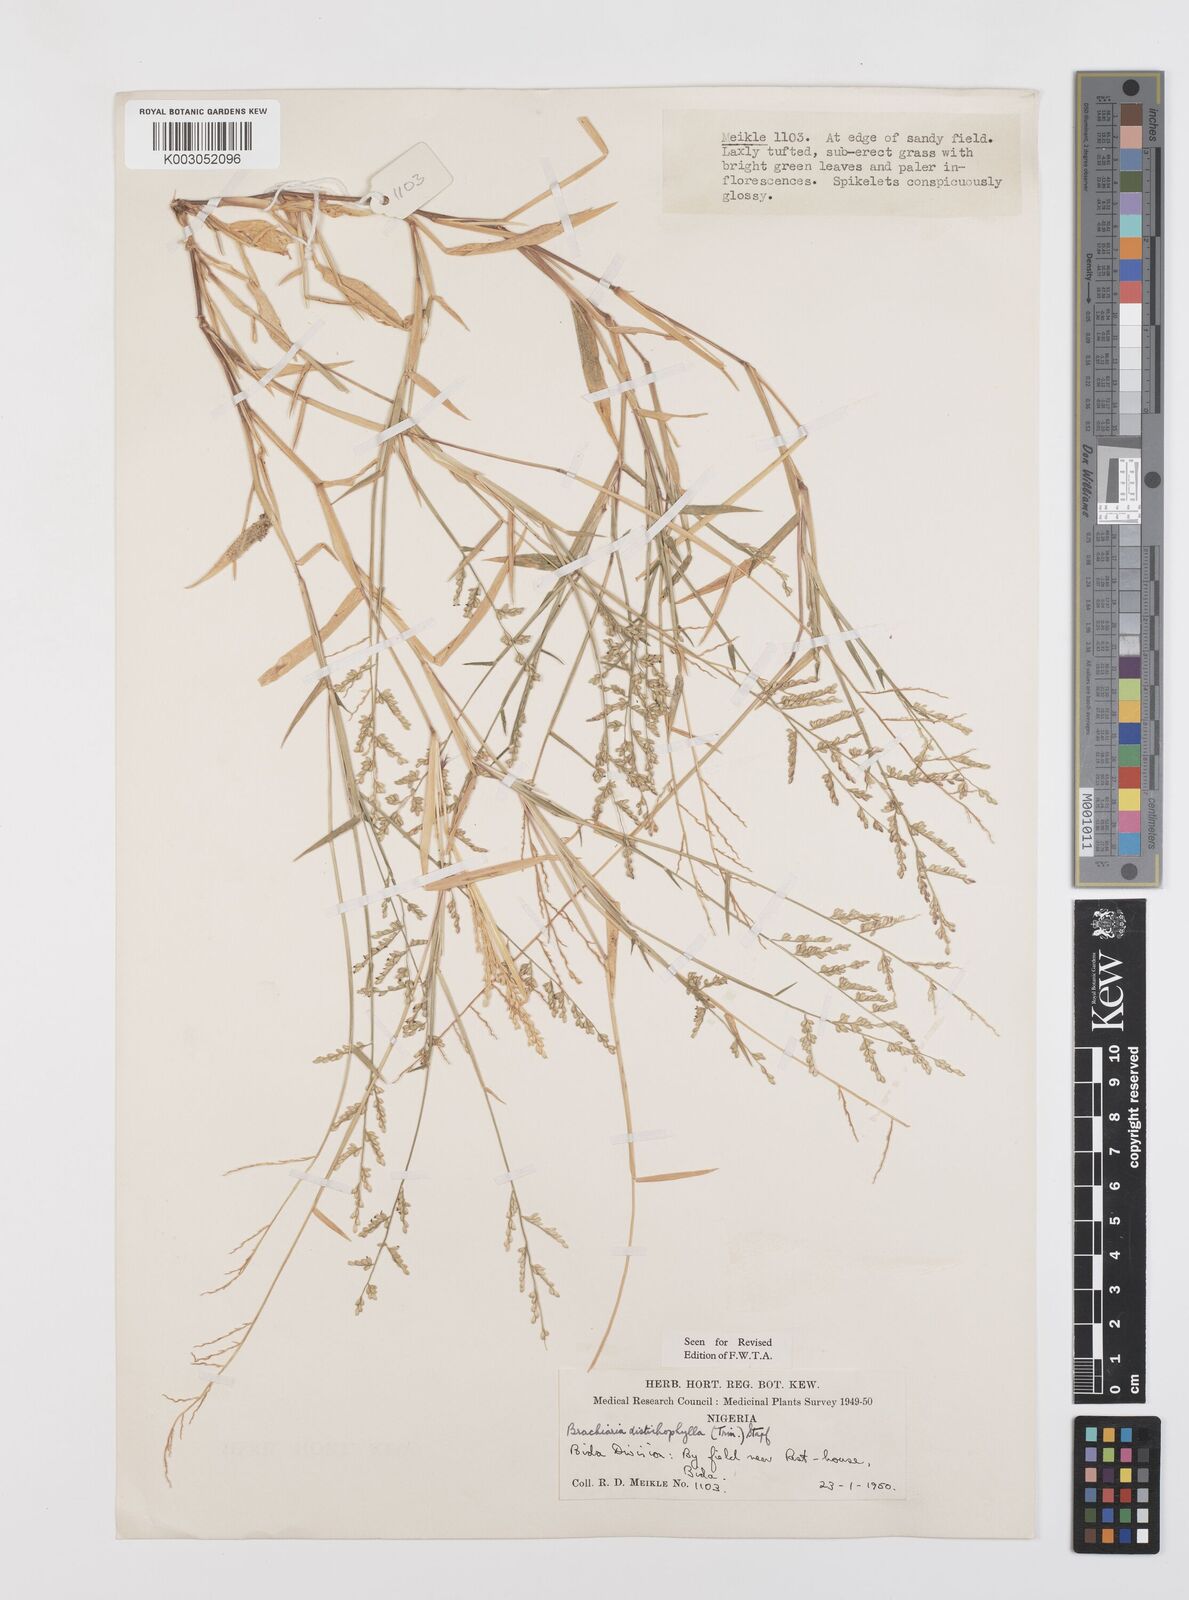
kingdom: Plantae
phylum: Tracheophyta
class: Liliopsida
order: Poales
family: Poaceae
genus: Urochloa
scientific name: Urochloa villosa
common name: Hairy signalgrass
